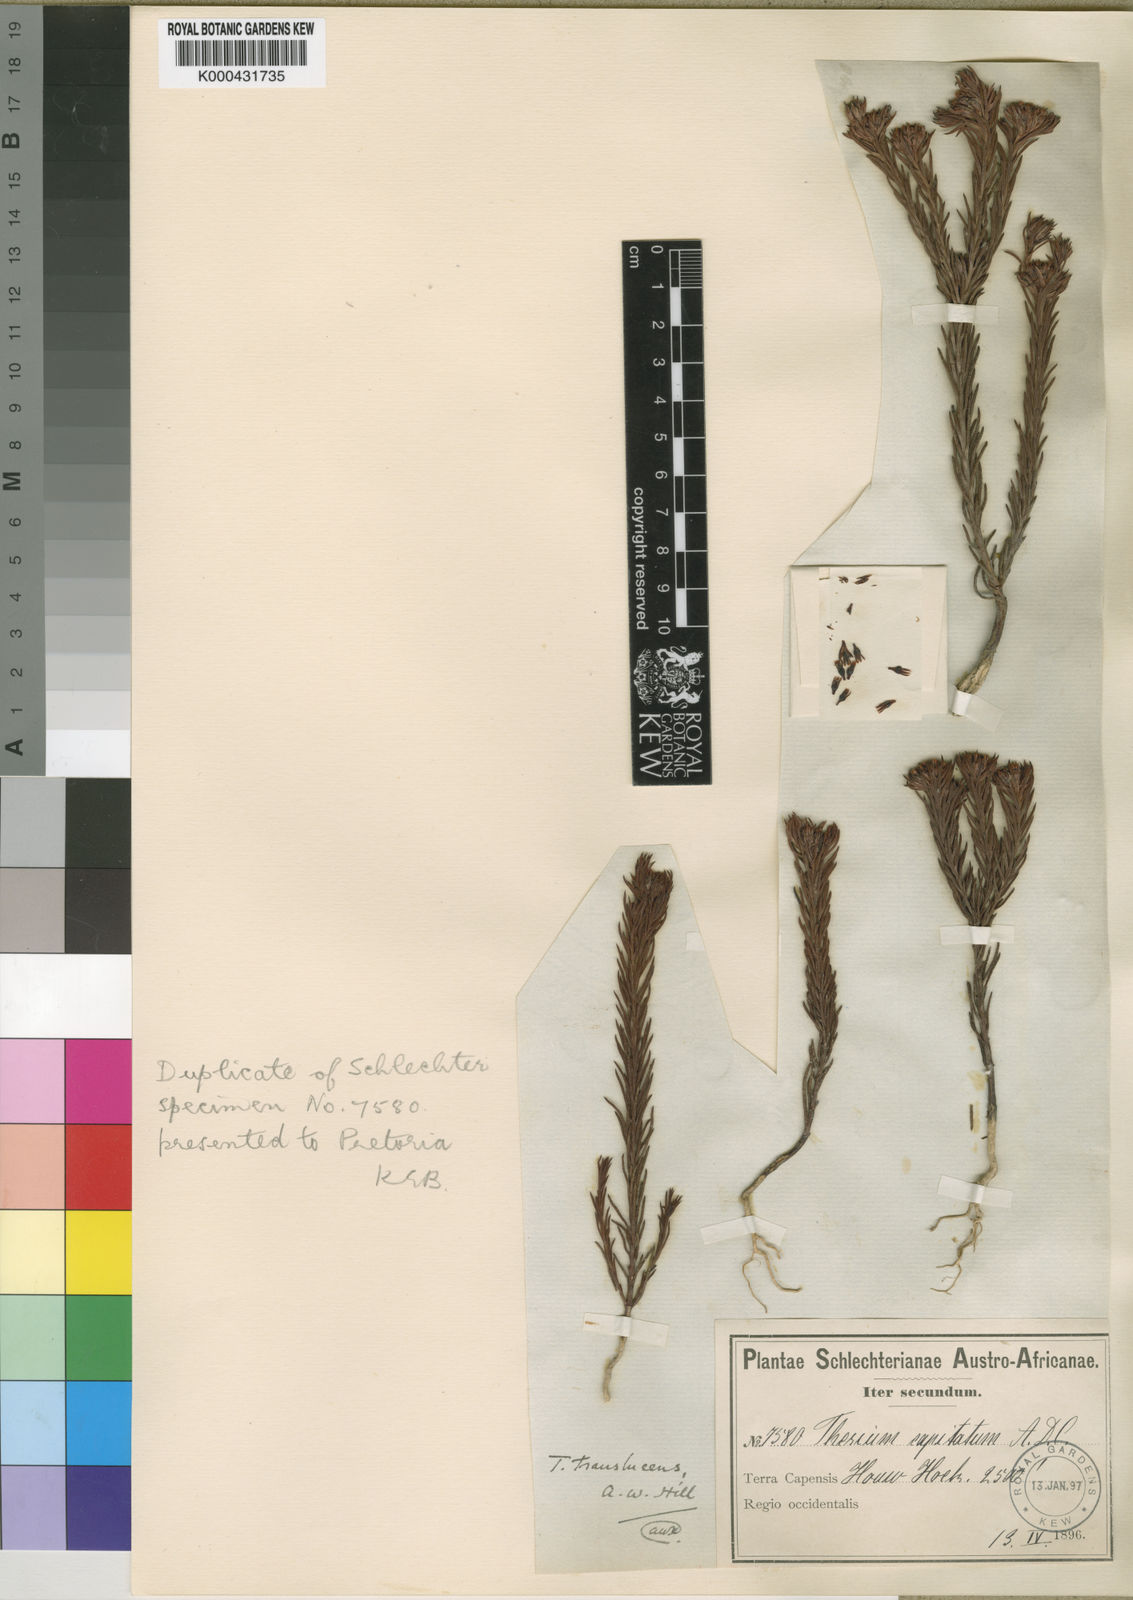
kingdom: Plantae
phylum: Tracheophyta
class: Magnoliopsida
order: Santalales
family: Thesiaceae
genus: Thesium
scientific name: Thesium translucens
